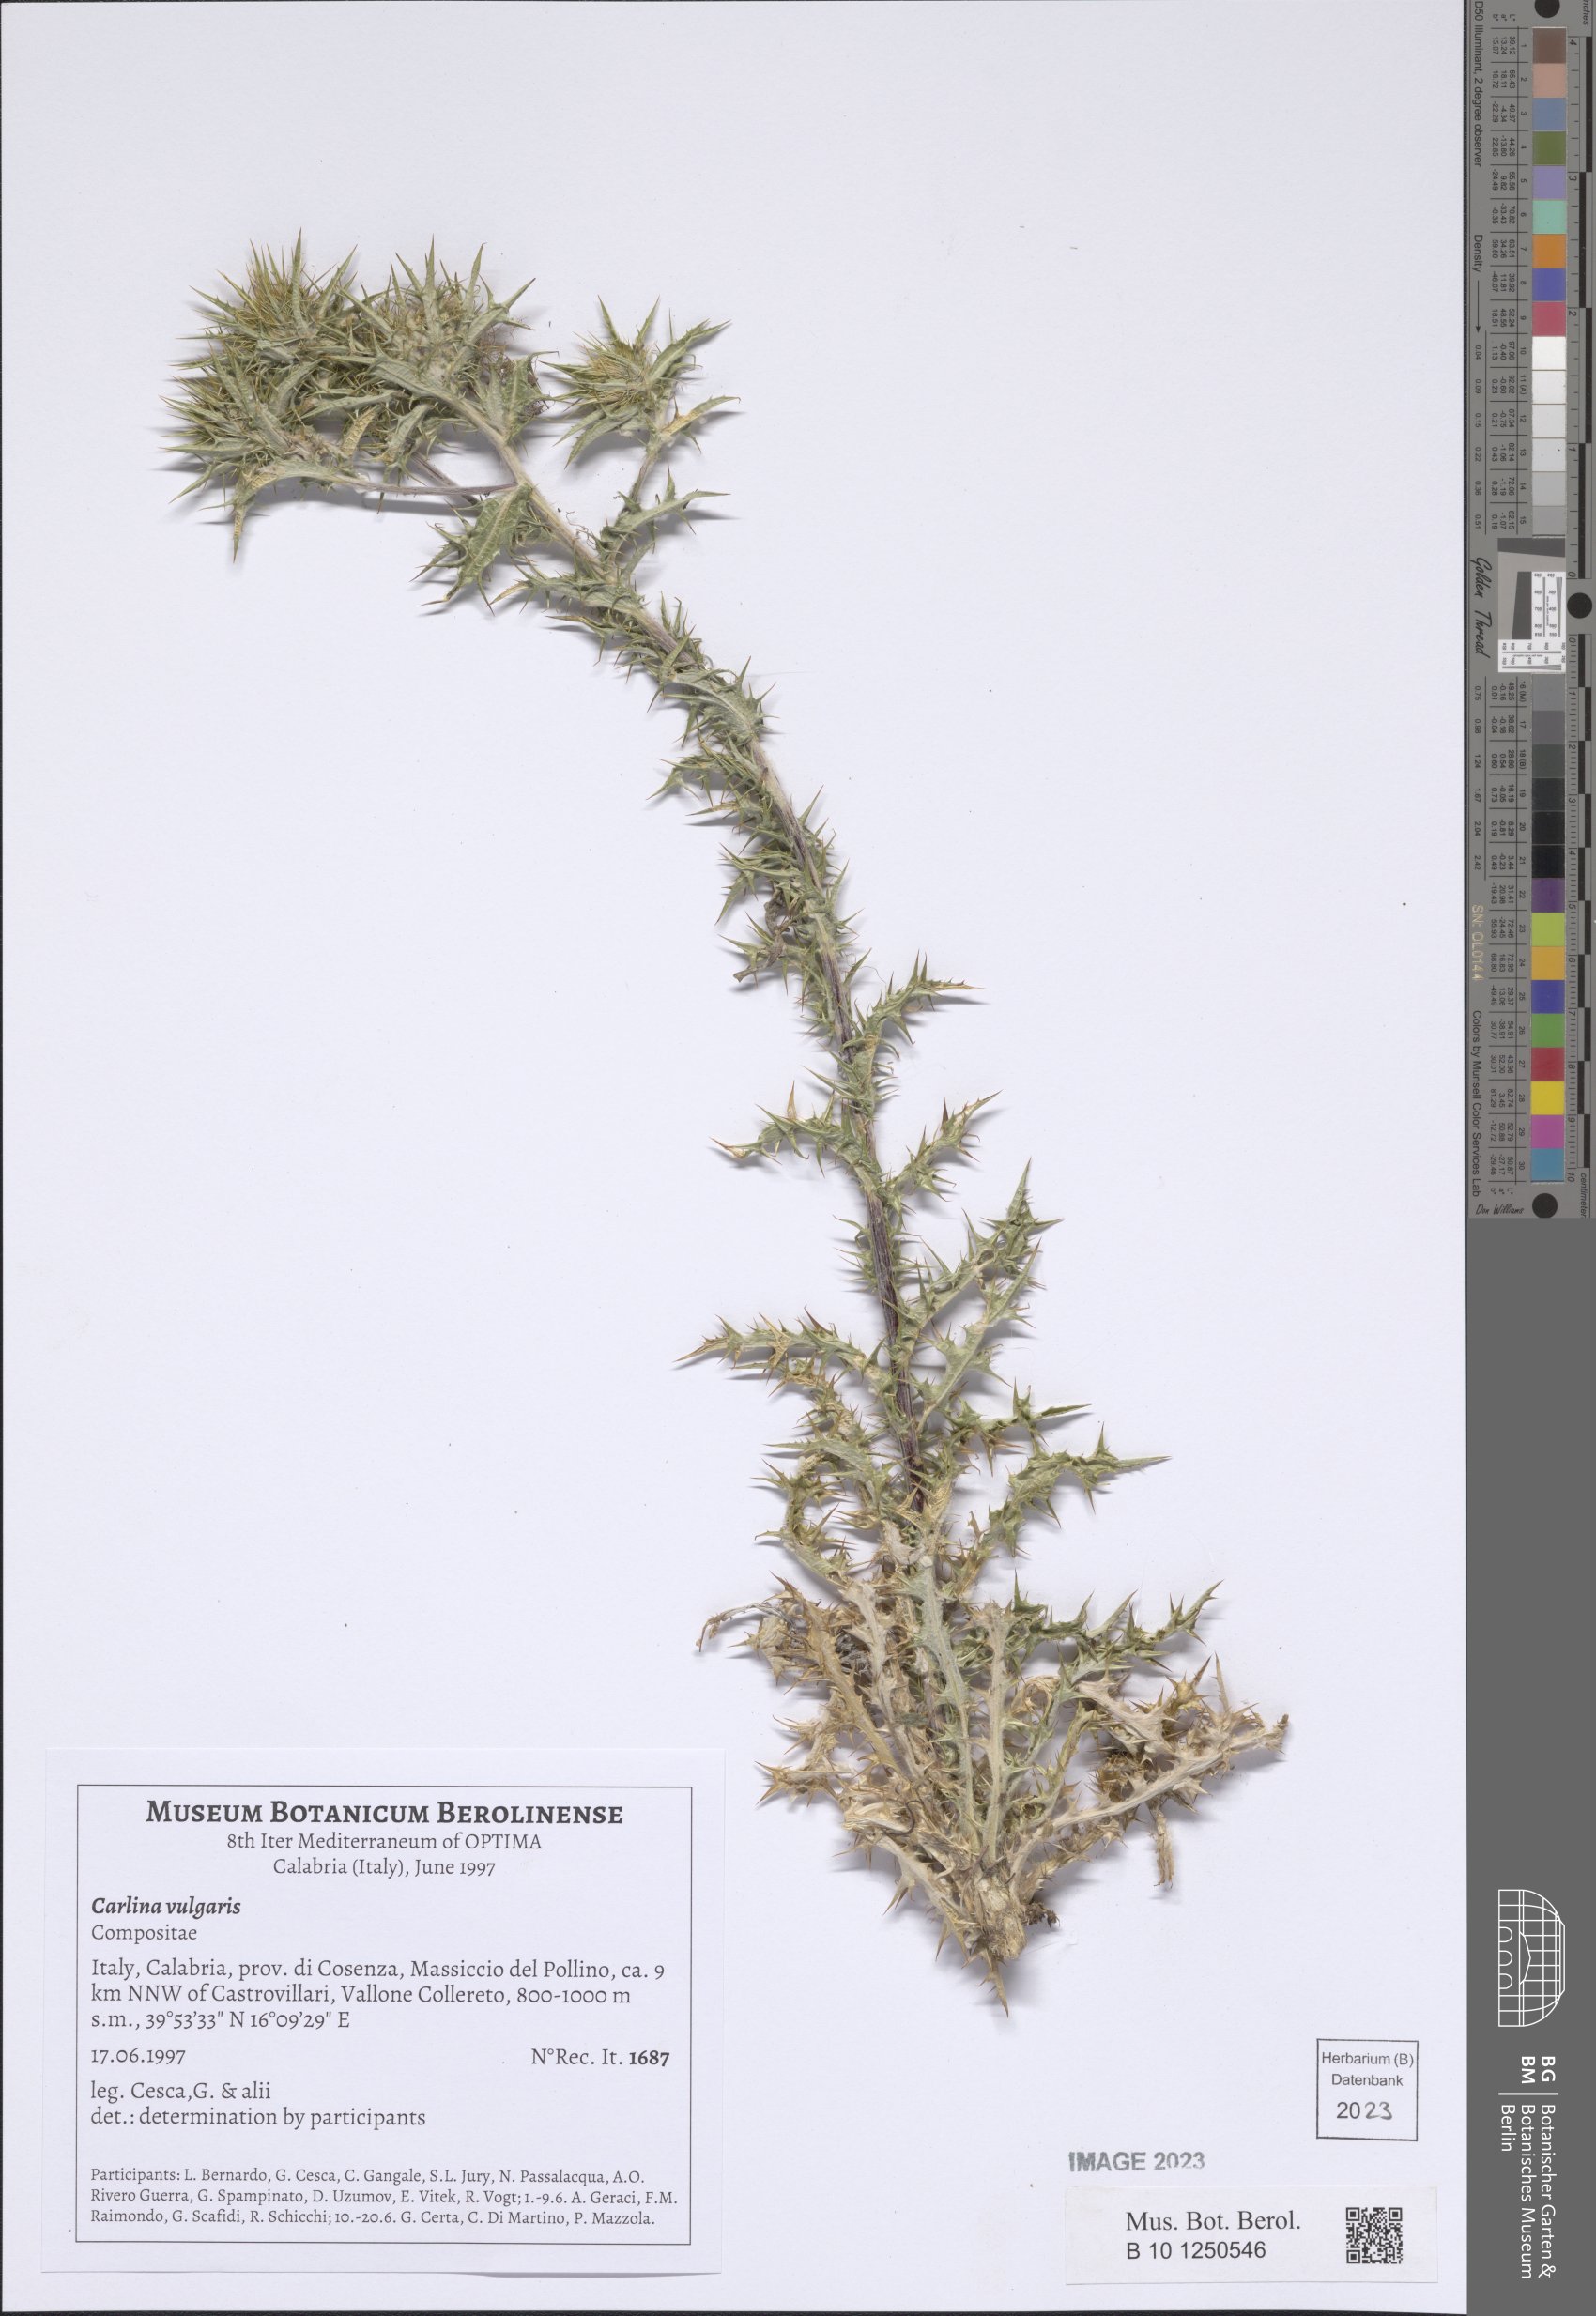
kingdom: Plantae
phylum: Tracheophyta
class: Magnoliopsida
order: Asterales
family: Asteraceae
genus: Carlina
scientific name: Carlina vulgaris
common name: Carline thistle
